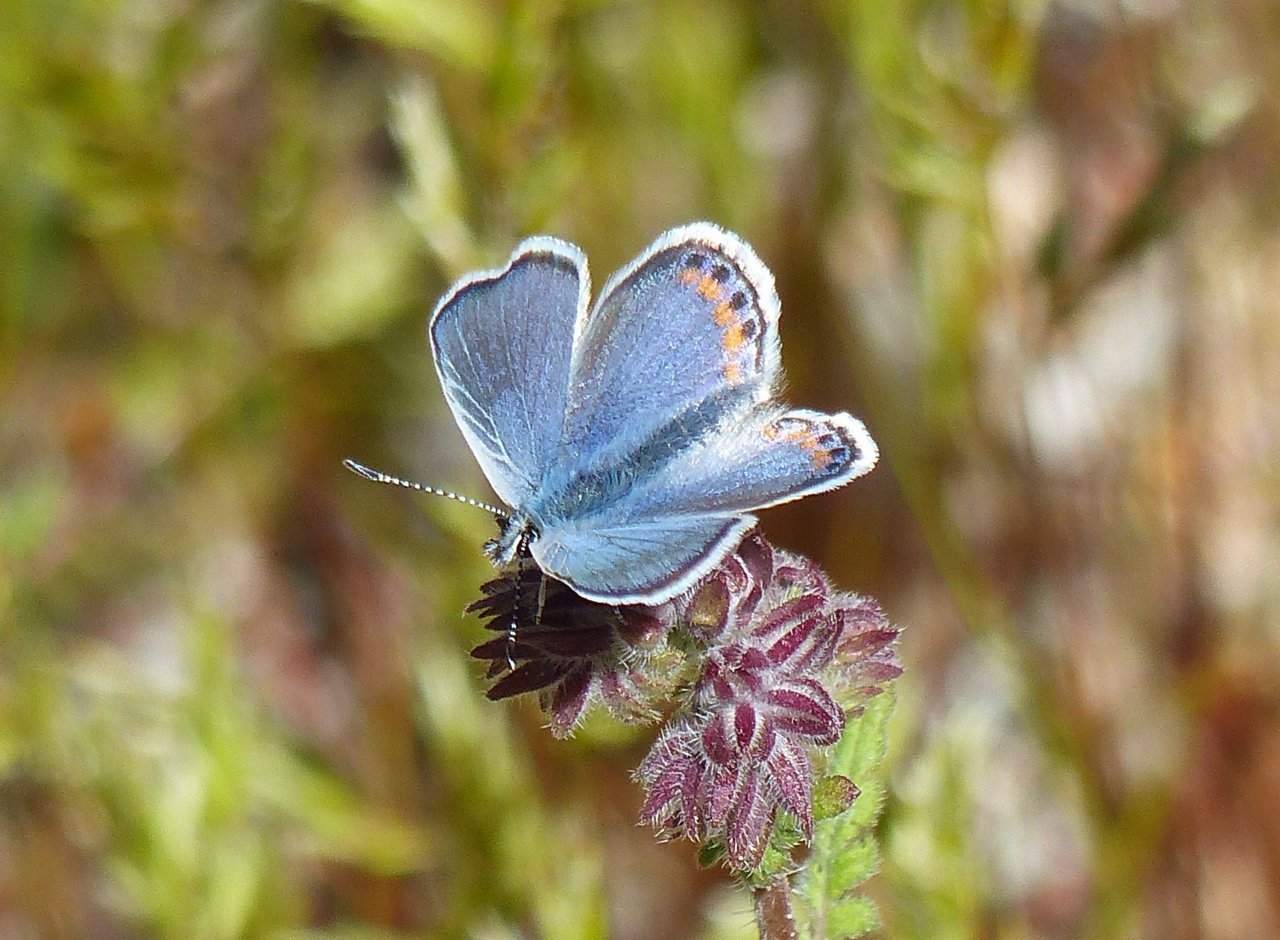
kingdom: Animalia
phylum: Arthropoda
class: Insecta
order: Lepidoptera
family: Lycaenidae
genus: Plebejus
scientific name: Plebejus
